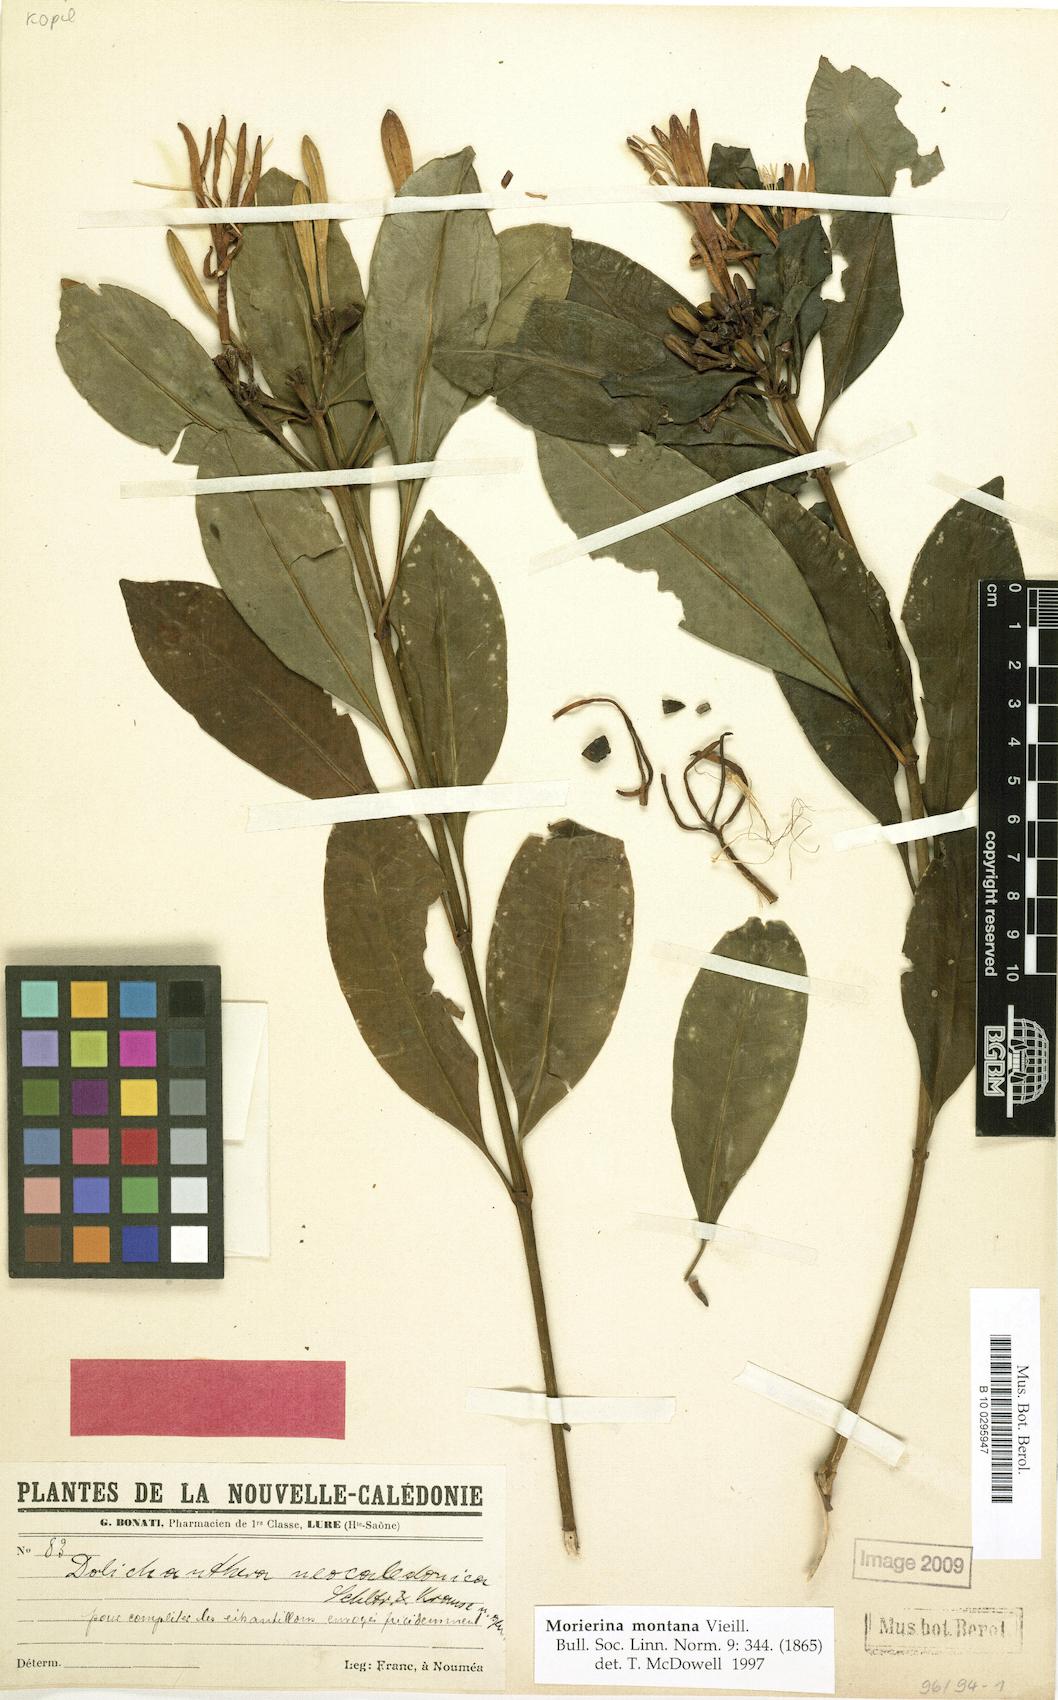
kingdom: Plantae
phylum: Tracheophyta
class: Magnoliopsida
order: Gentianales
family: Rubiaceae
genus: Thiollierea
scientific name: Thiollierea montana
